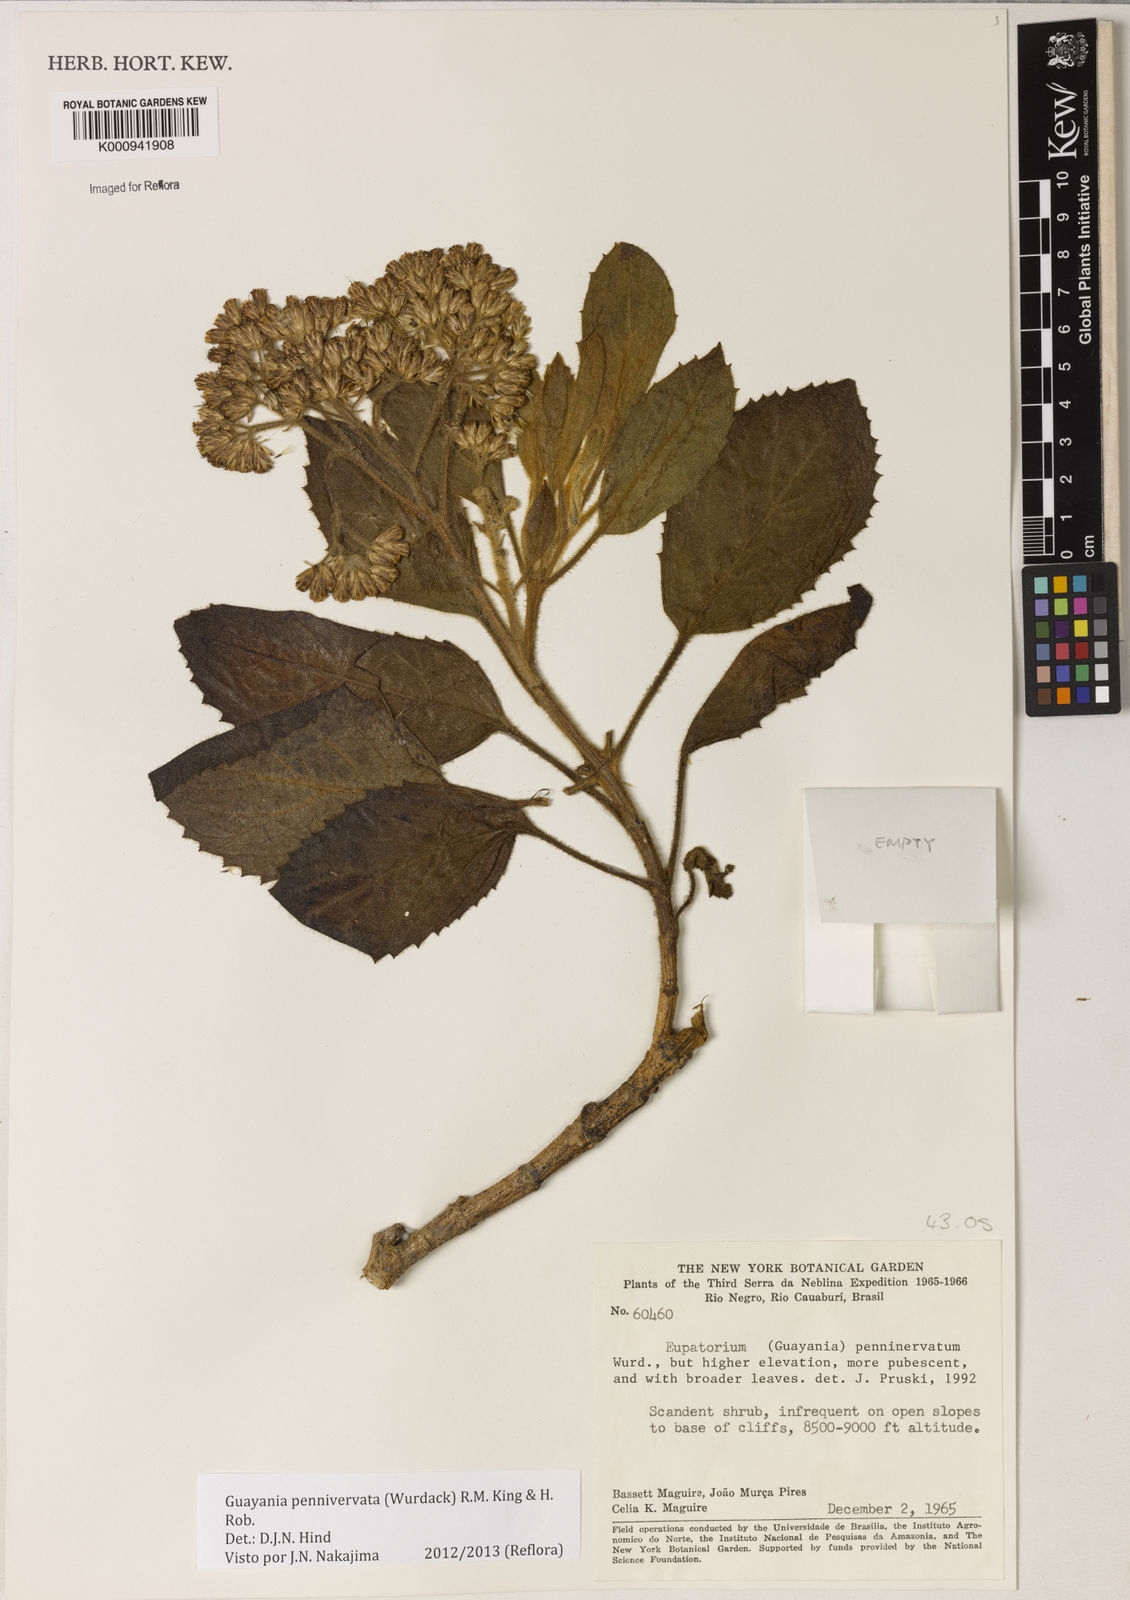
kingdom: Plantae
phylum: Tracheophyta
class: Magnoliopsida
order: Asterales
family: Asteraceae
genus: Guayania
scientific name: Guayania
